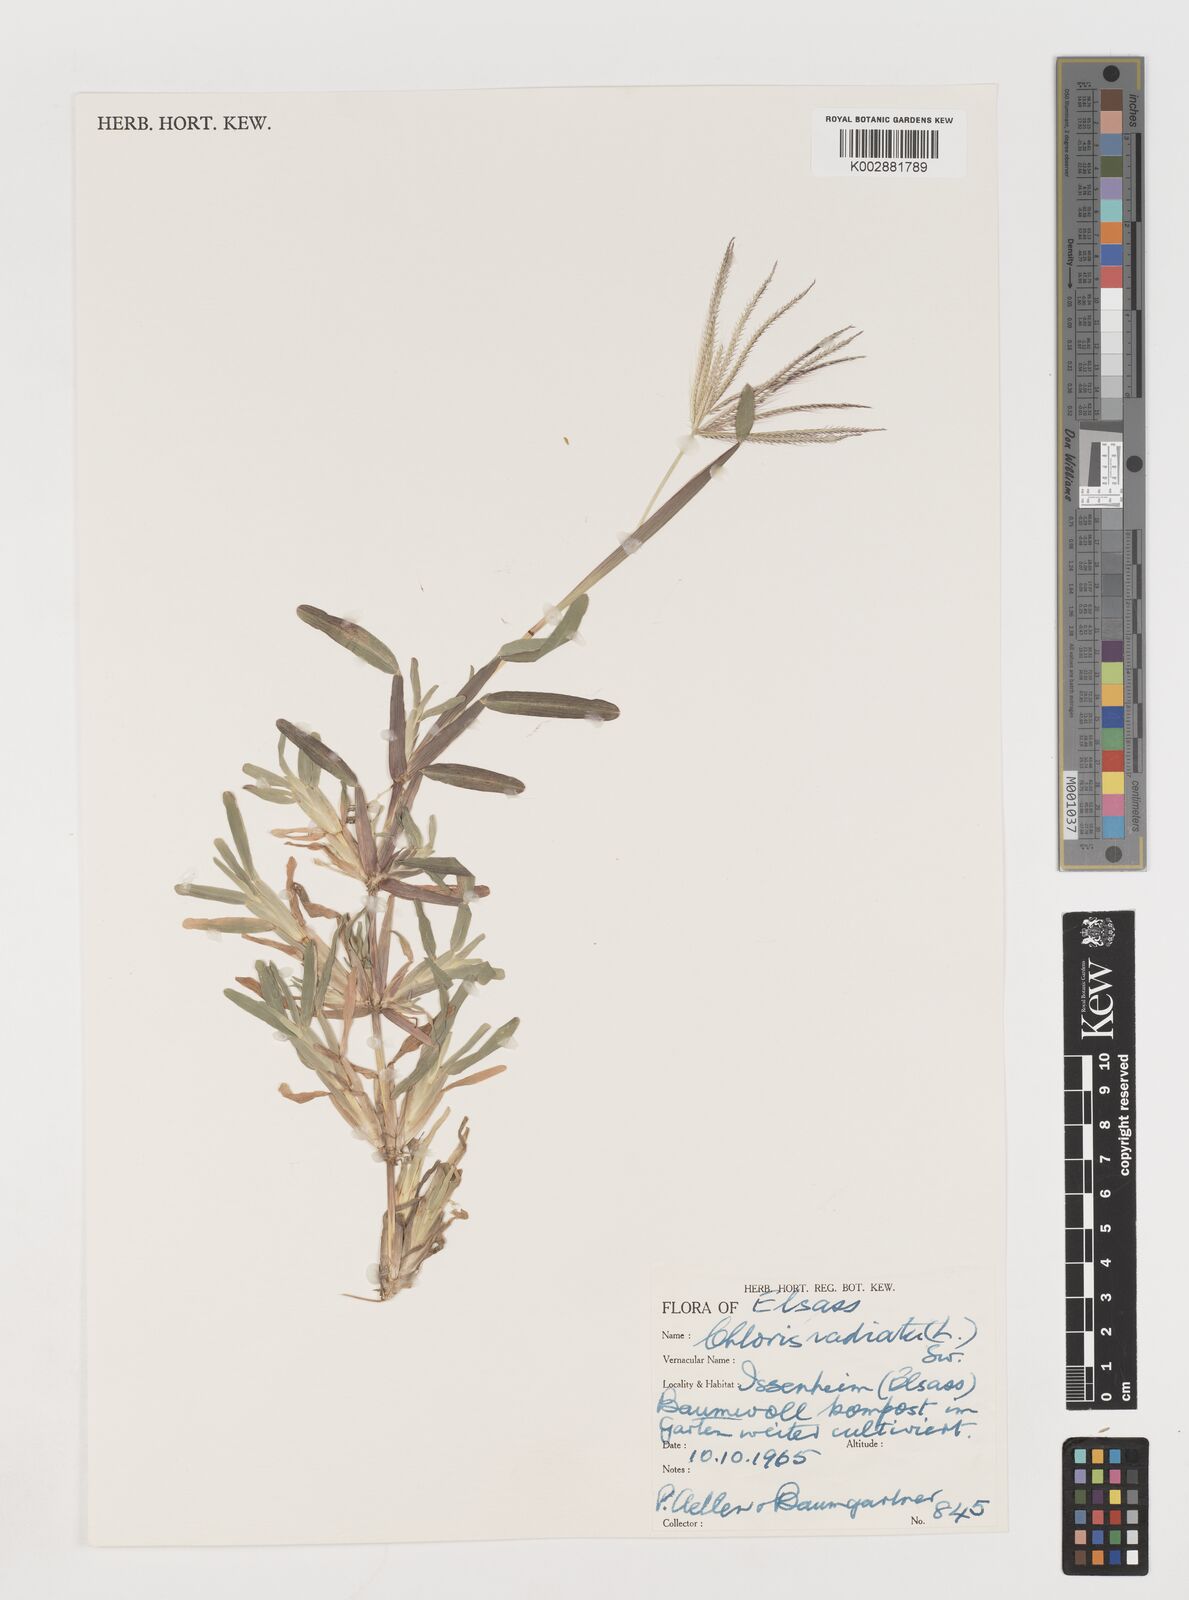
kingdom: Plantae
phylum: Tracheophyta
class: Liliopsida
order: Poales
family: Poaceae
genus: Chloris
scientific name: Chloris radiata
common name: Radiate fingergrass
